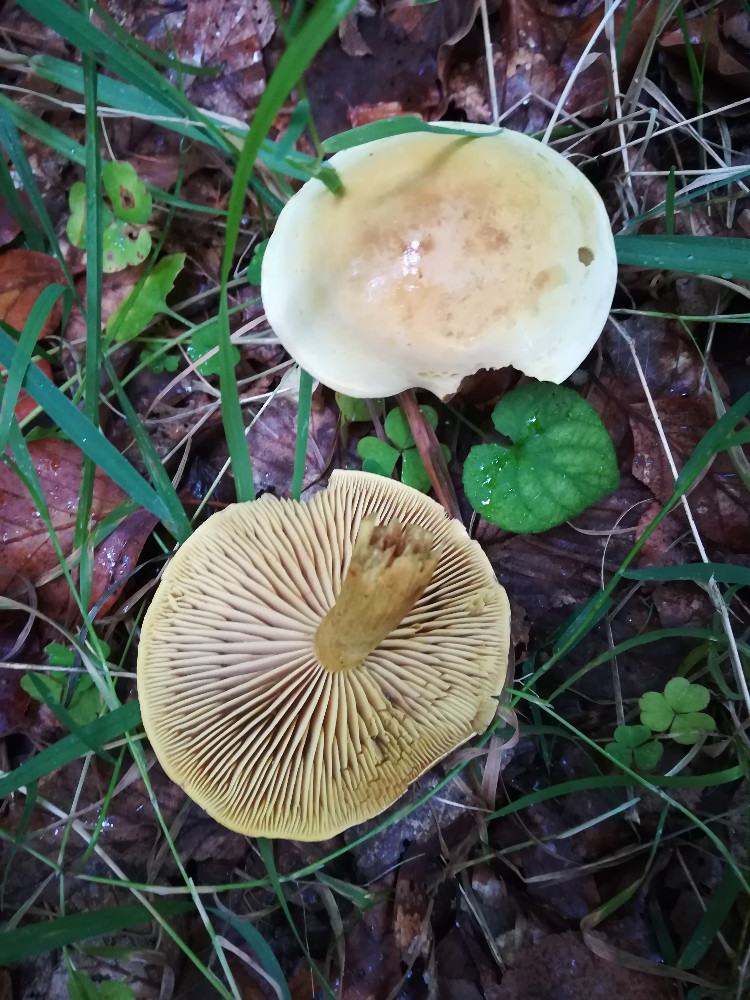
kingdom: Fungi
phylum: Basidiomycota
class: Agaricomycetes
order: Agaricales
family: Tricholomataceae
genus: Tricholoma
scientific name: Tricholoma sulphureum
